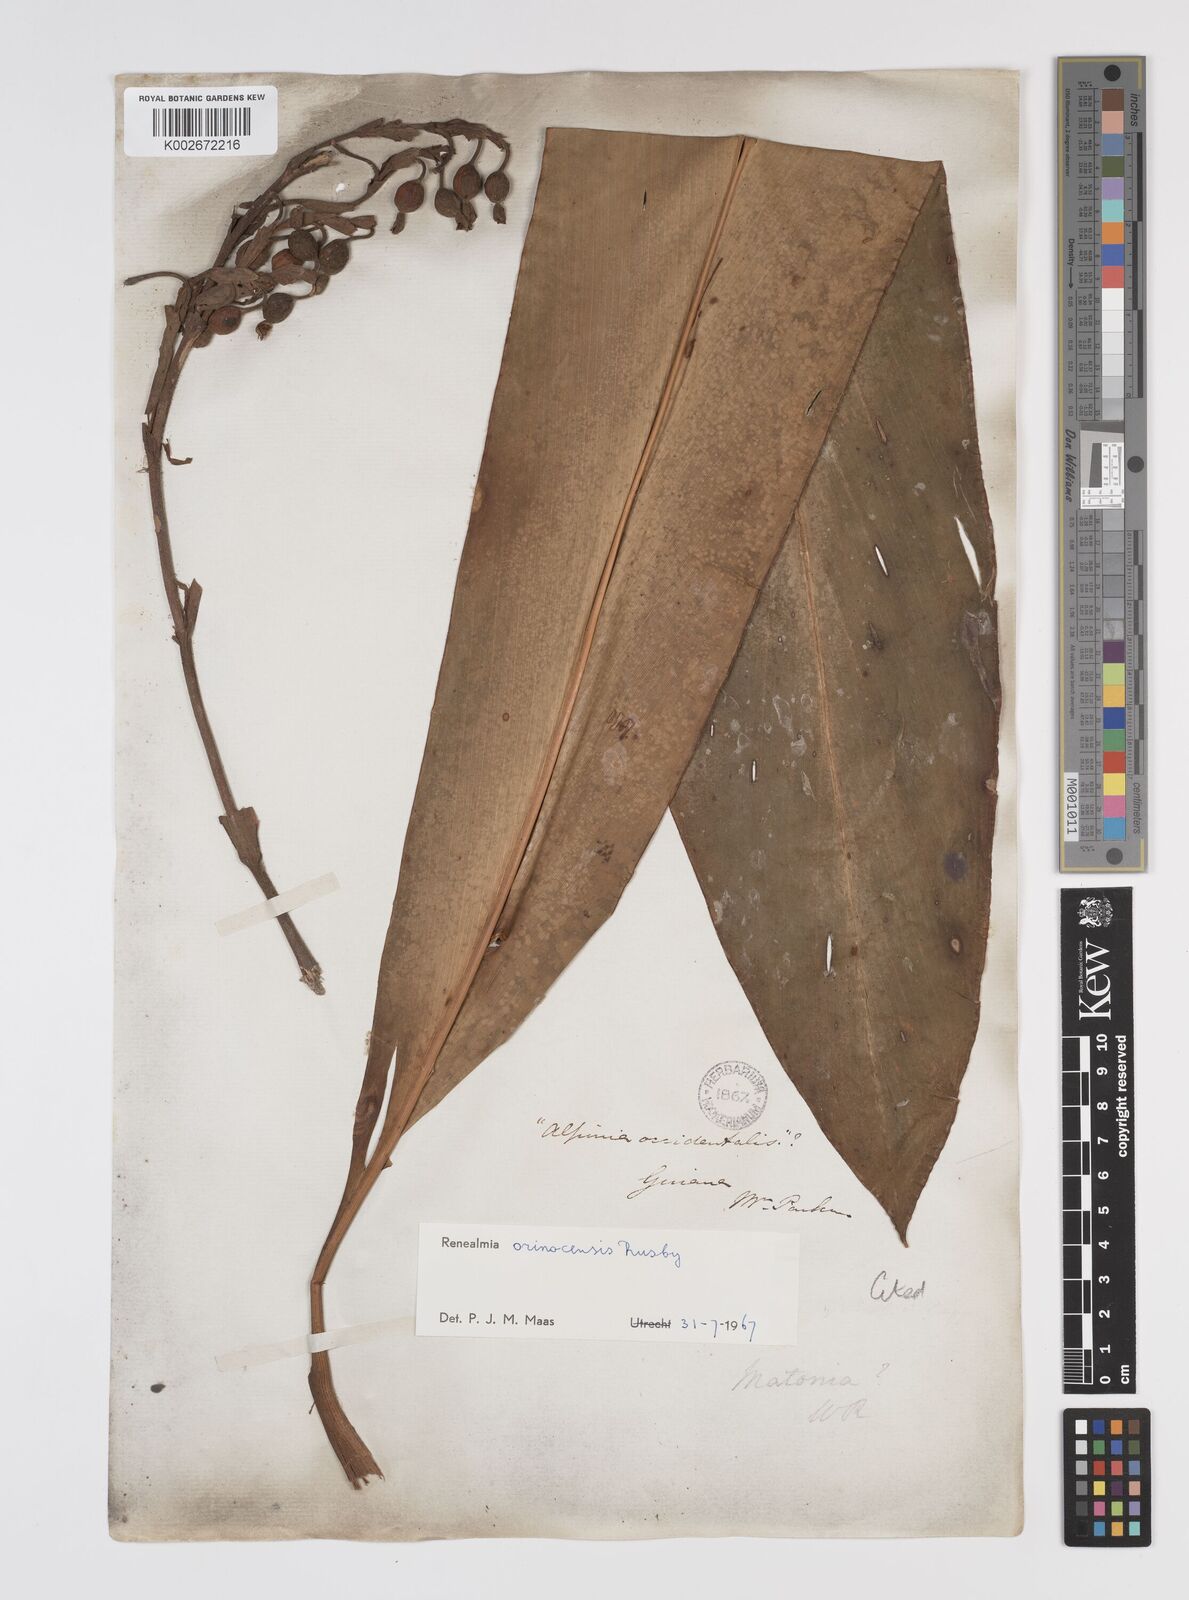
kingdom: Plantae
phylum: Tracheophyta
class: Liliopsida
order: Zingiberales
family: Zingiberaceae
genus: Renealmia
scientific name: Renealmia orinocensis
